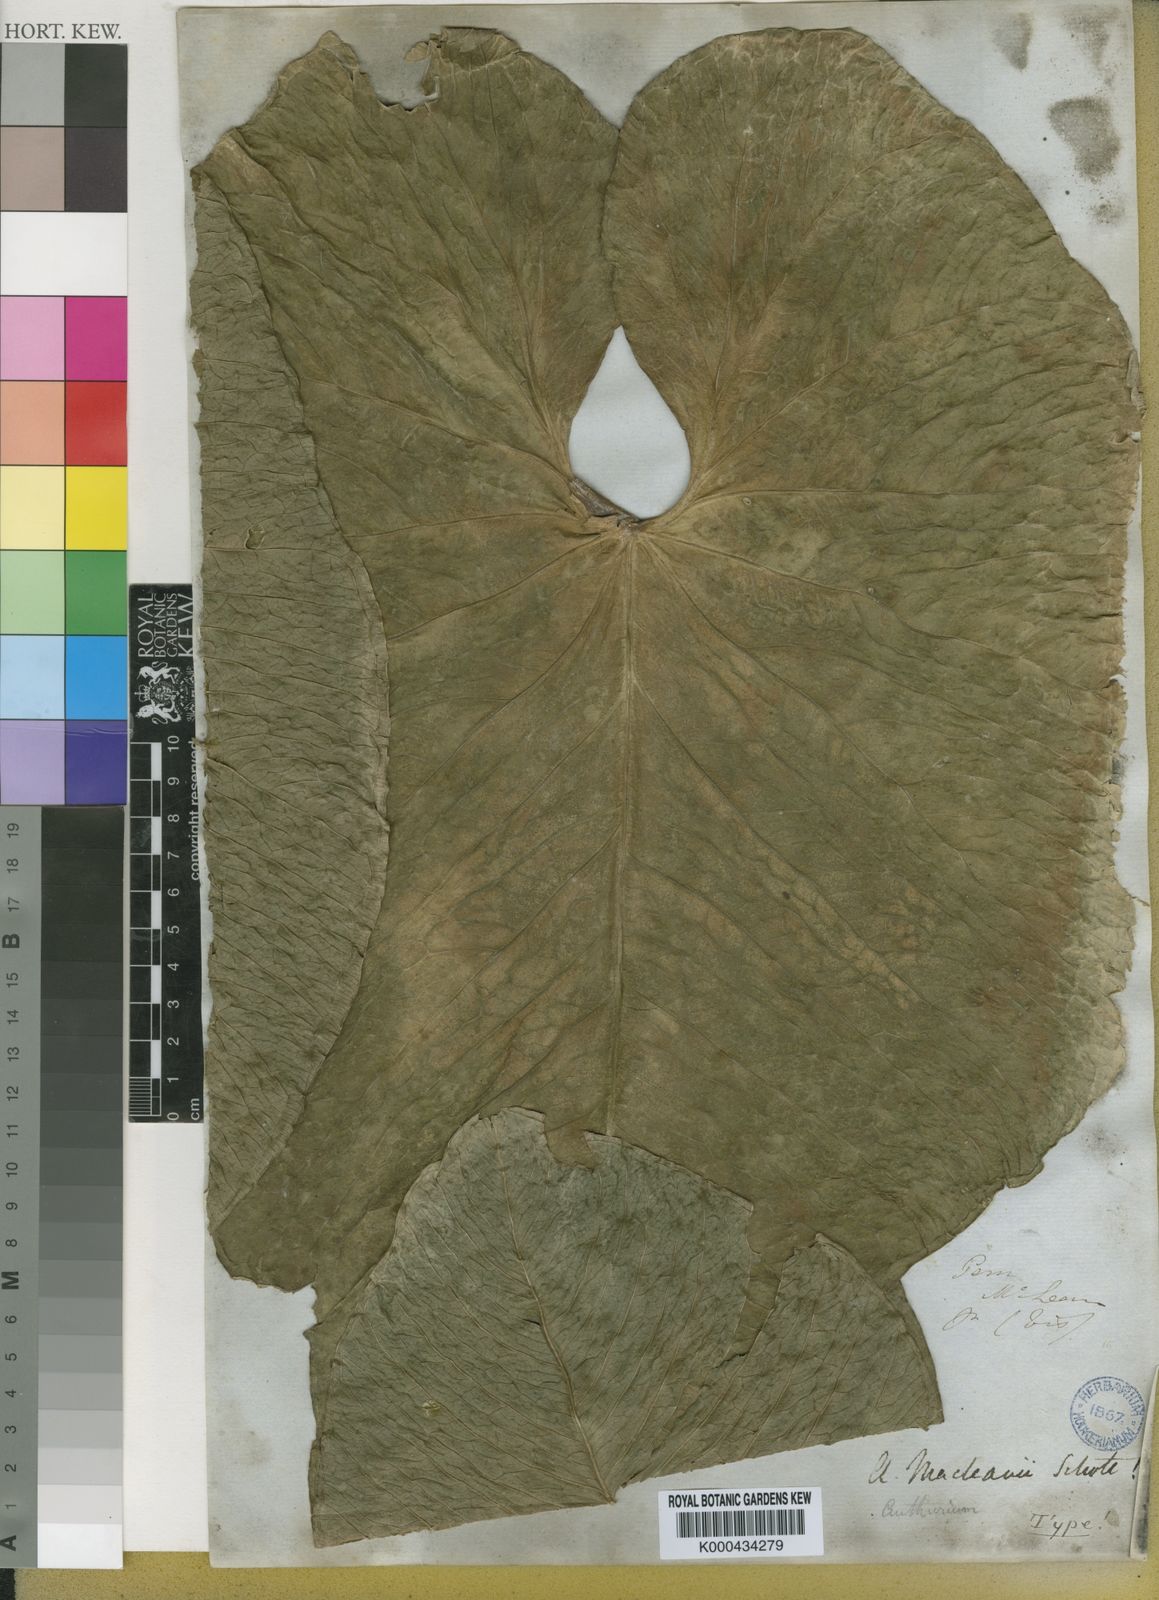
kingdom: Plantae
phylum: Tracheophyta
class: Liliopsida
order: Alismatales
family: Araceae
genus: Anthurium
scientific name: Anthurium macleanii
